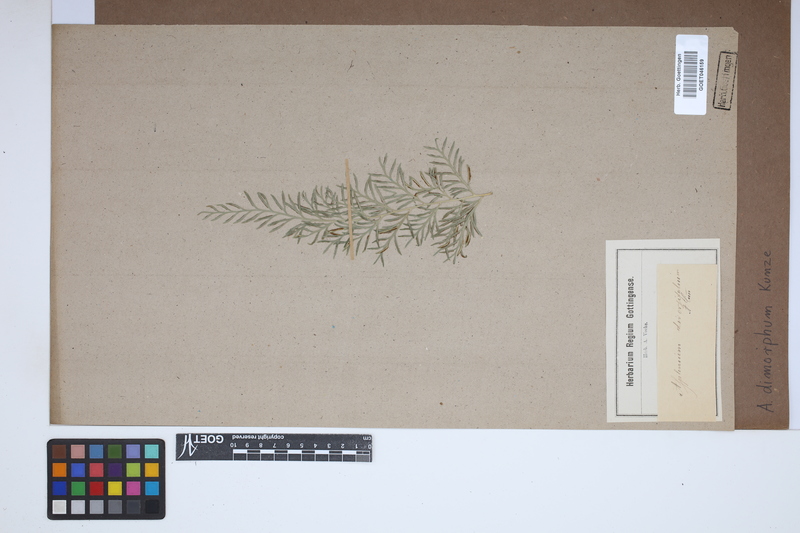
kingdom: Plantae
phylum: Tracheophyta
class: Polypodiopsida
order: Polypodiales
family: Aspleniaceae
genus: Asplenium
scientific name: Asplenium dimorphum
